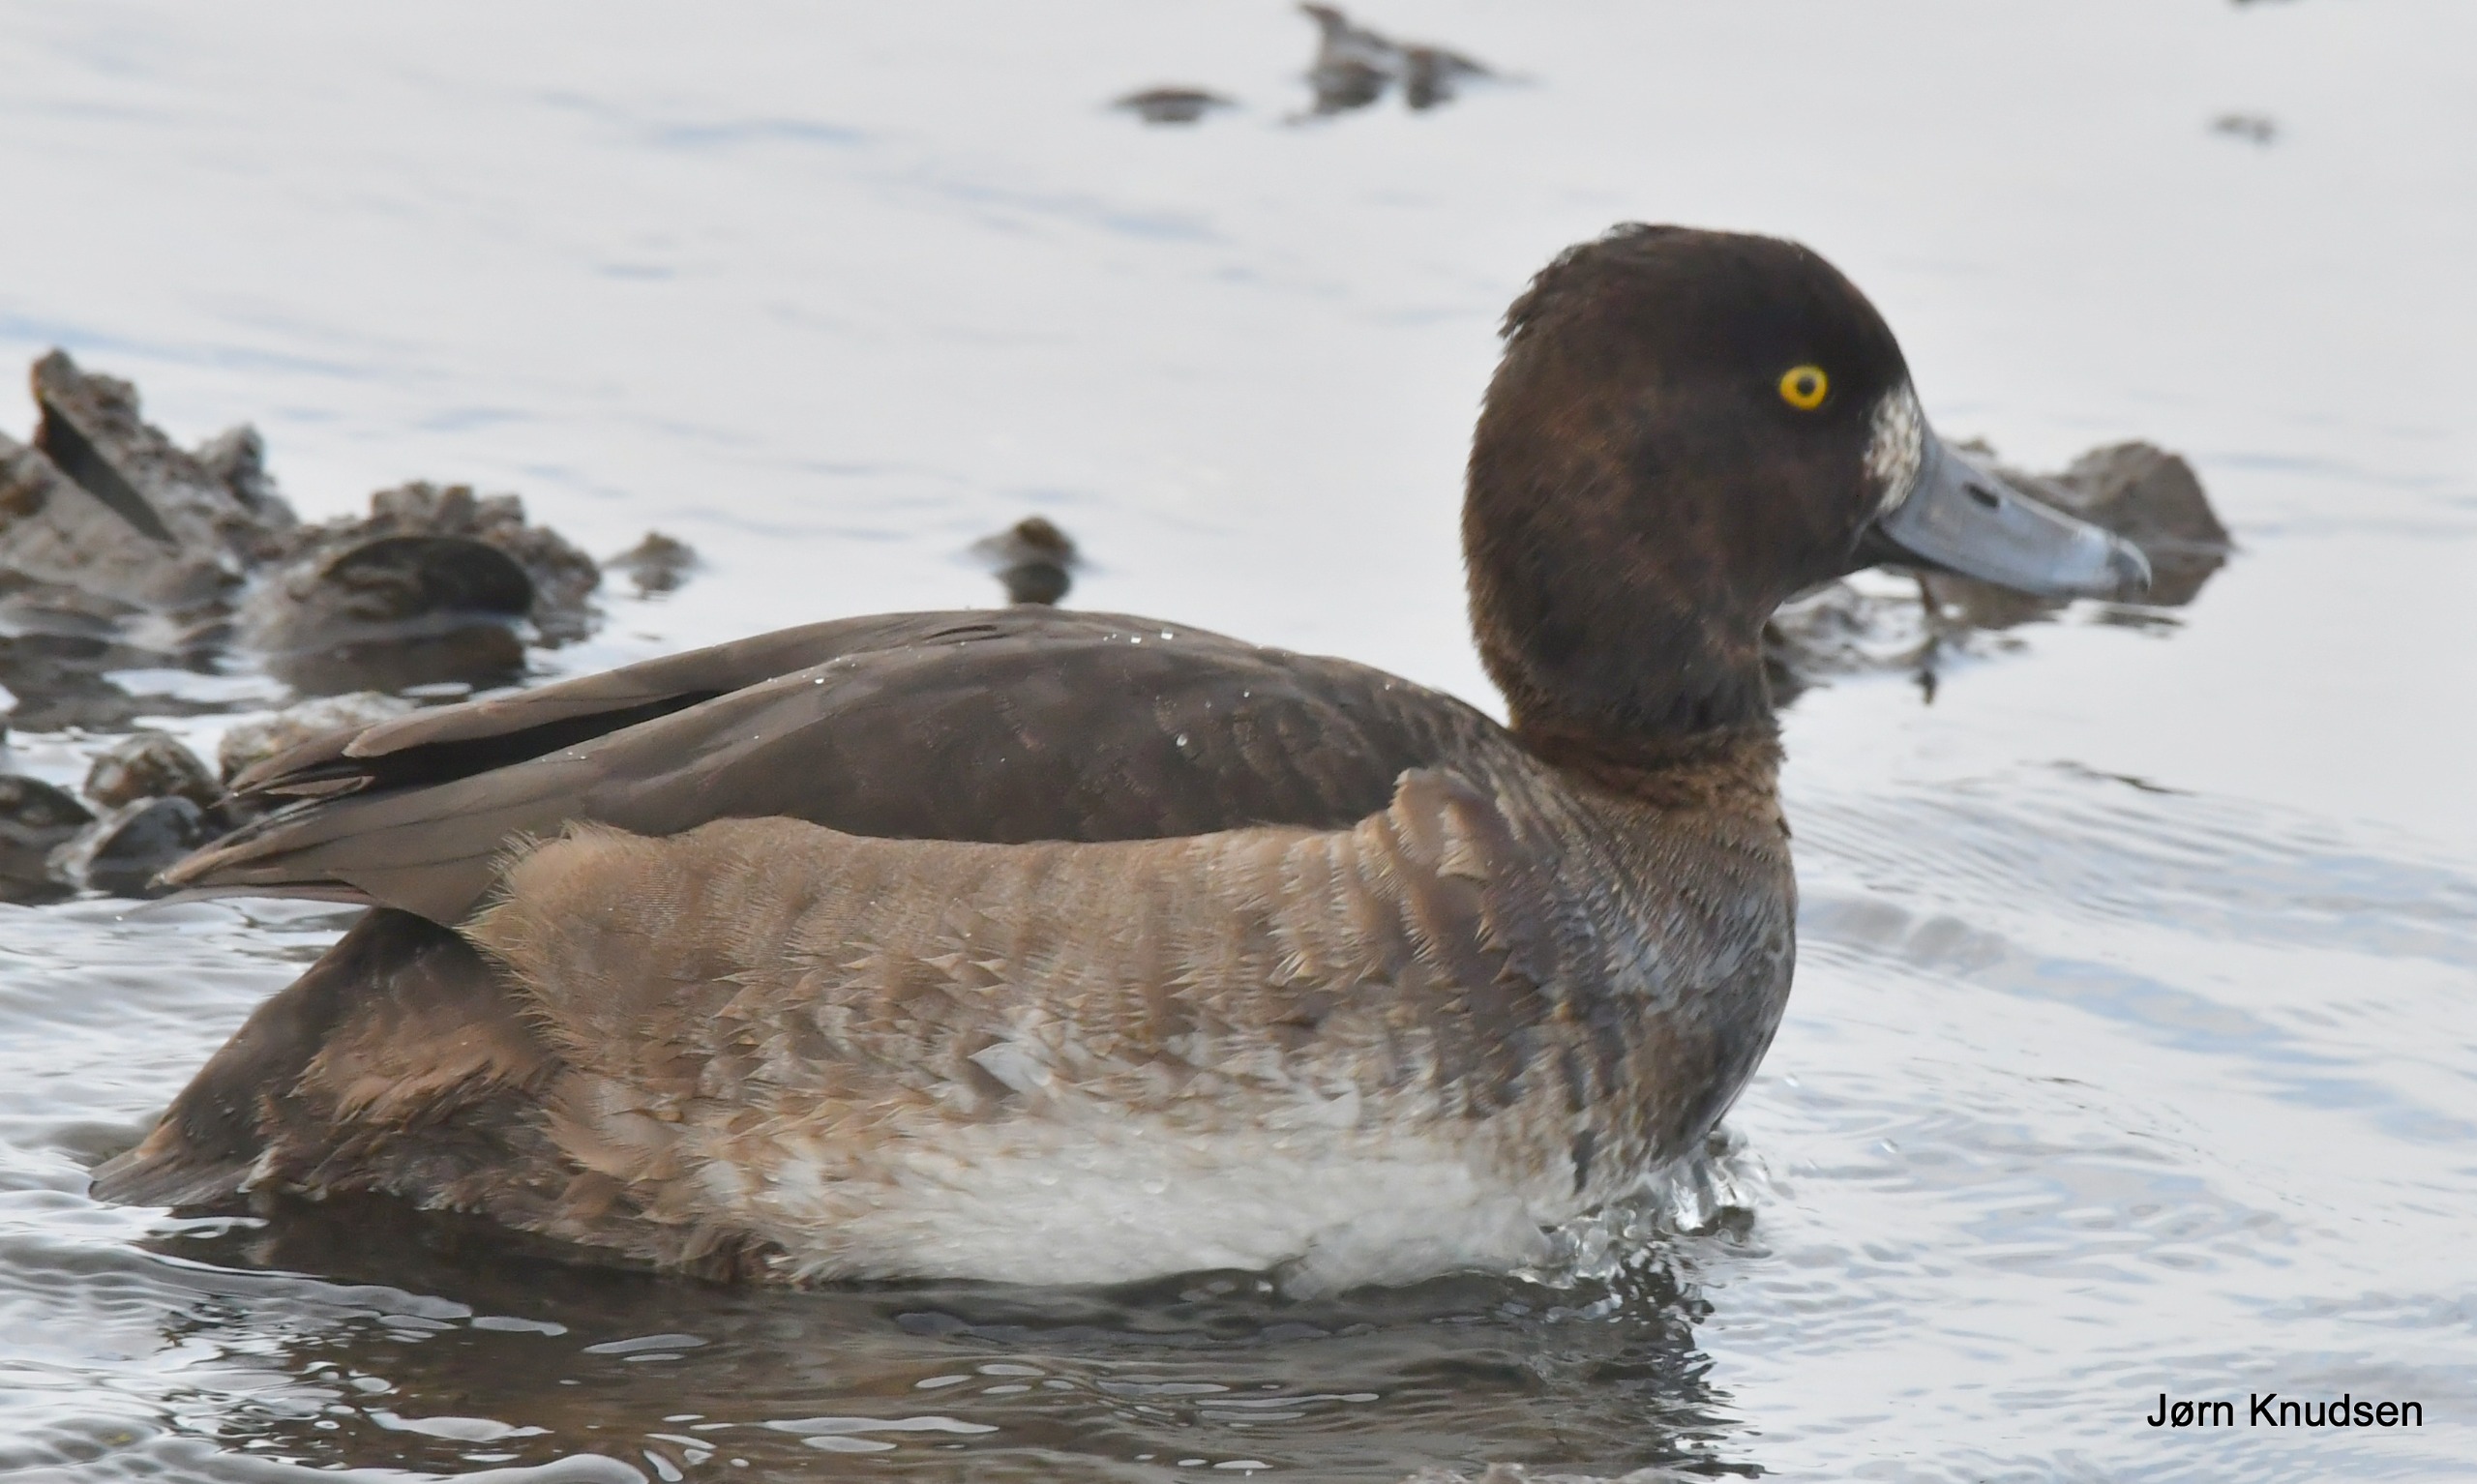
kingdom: Animalia
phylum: Chordata
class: Aves
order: Anseriformes
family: Anatidae
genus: Aythya
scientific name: Aythya fuligula
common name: Troldand
